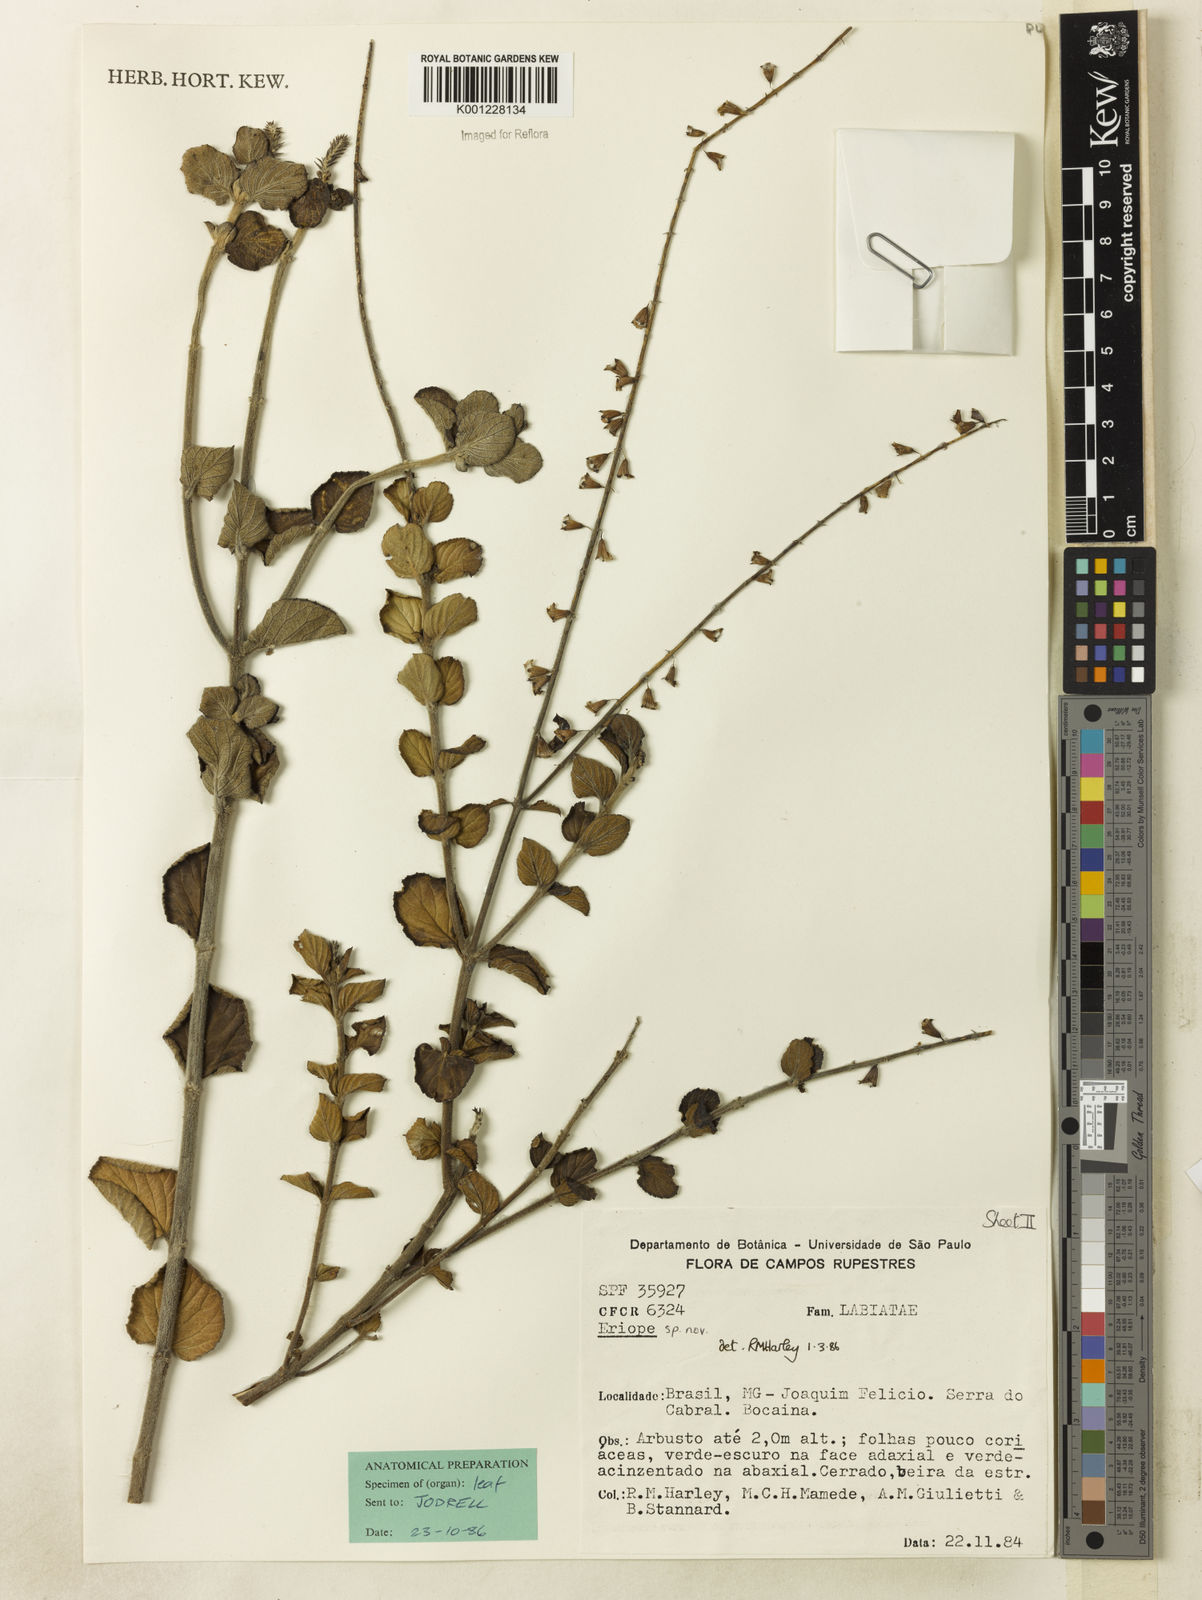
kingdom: Plantae
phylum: Tracheophyta
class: Magnoliopsida
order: Lamiales
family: Lamiaceae
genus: Eriope
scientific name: Eriope
